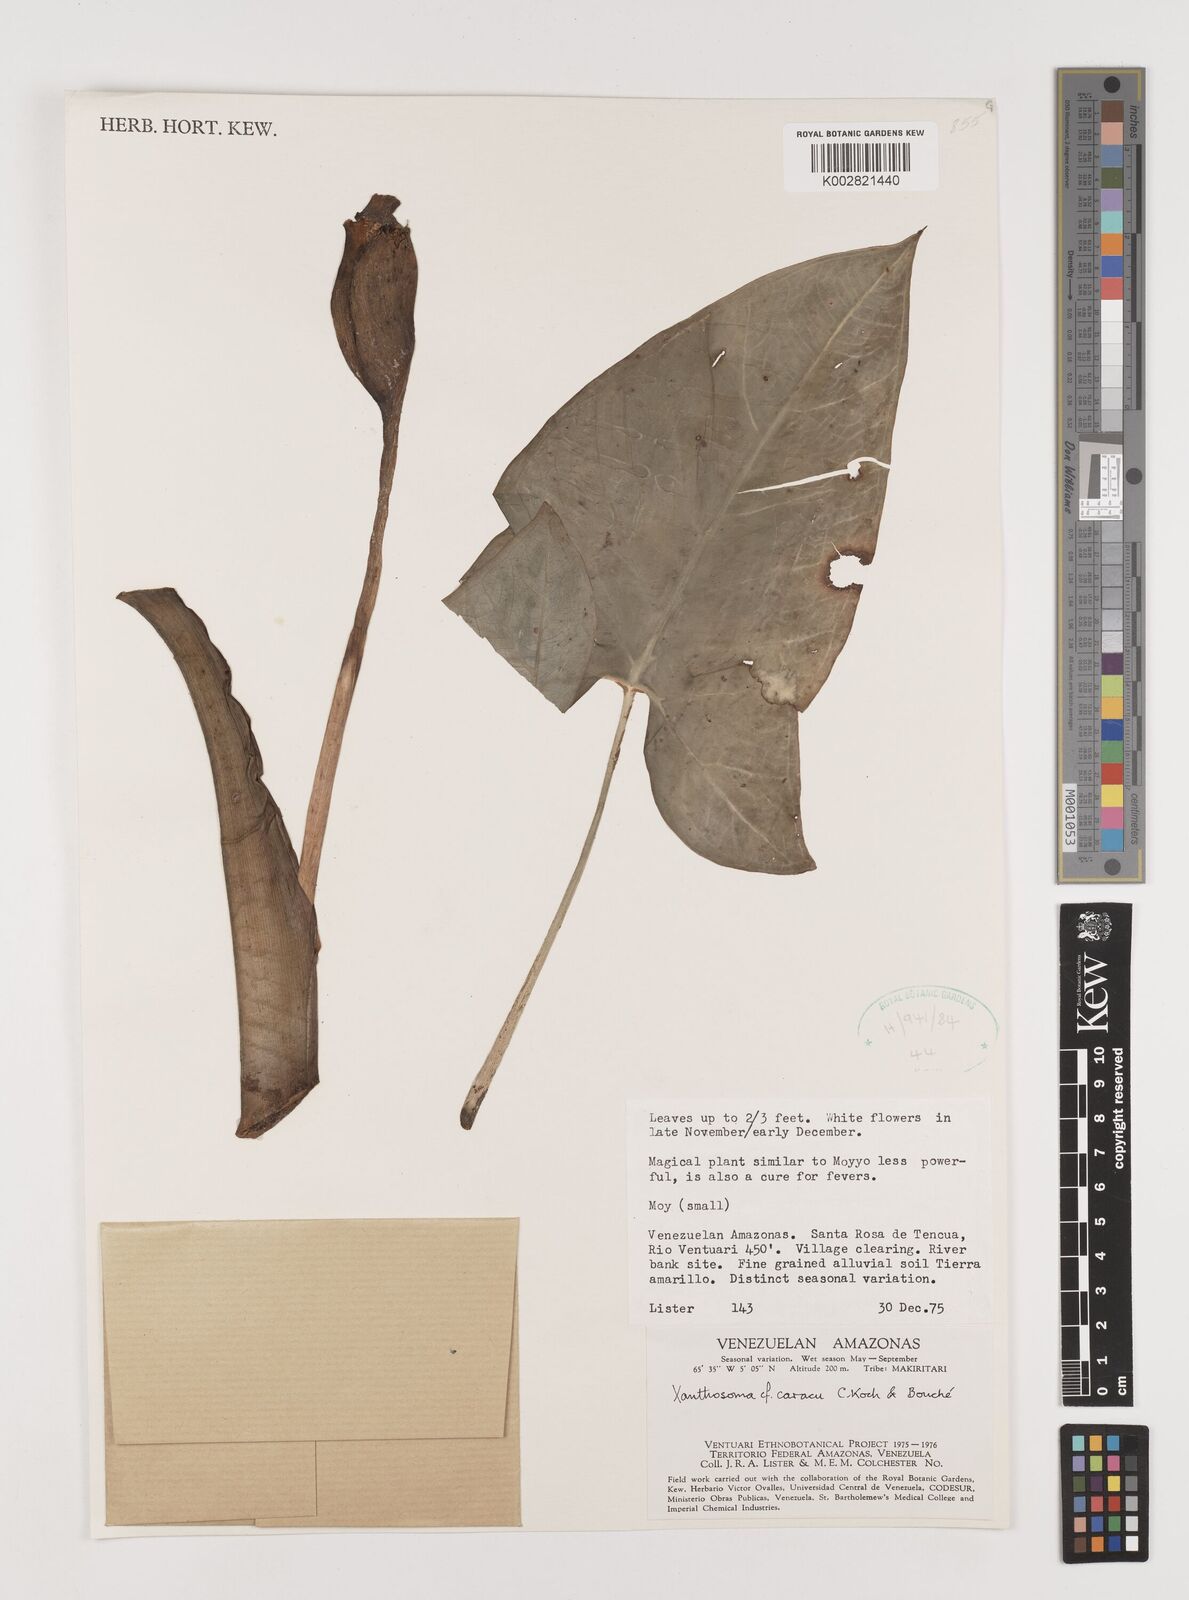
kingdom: Plantae
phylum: Tracheophyta
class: Liliopsida
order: Alismatales
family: Araceae
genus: Xanthosoma
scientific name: Xanthosoma caracu
